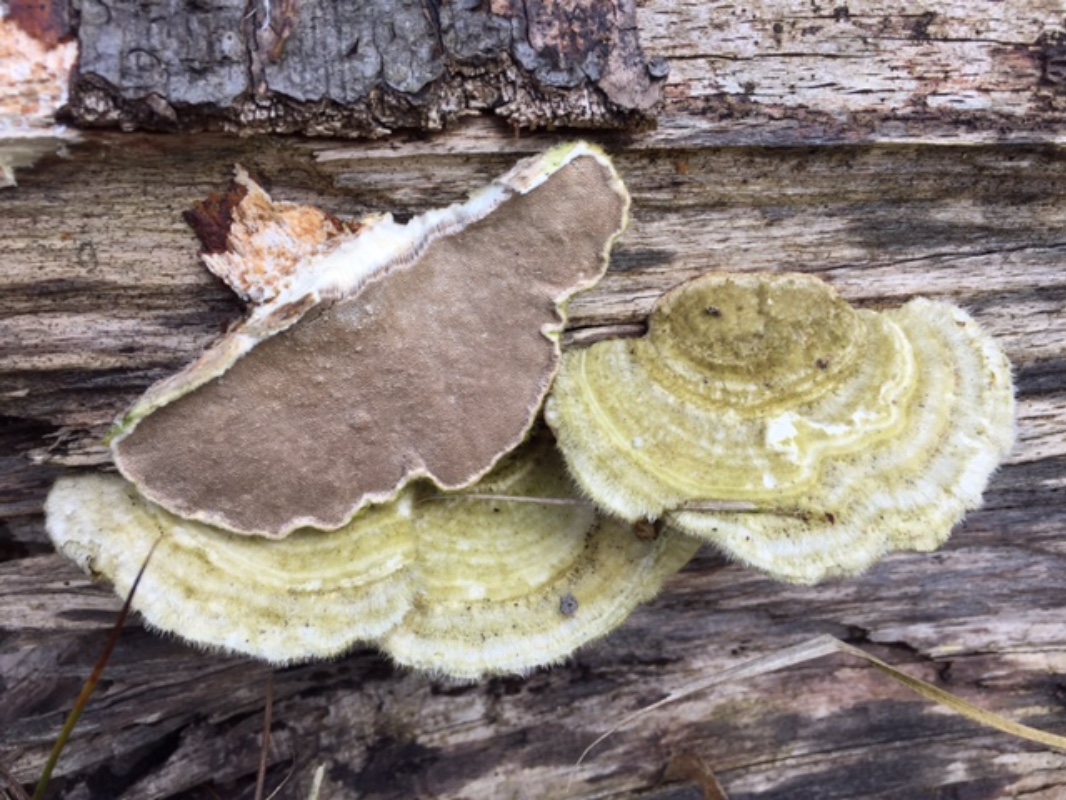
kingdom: Fungi
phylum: Basidiomycota
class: Agaricomycetes
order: Polyporales
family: Polyporaceae
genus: Trametes
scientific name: Trametes hirsuta
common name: håret læderporesvamp
